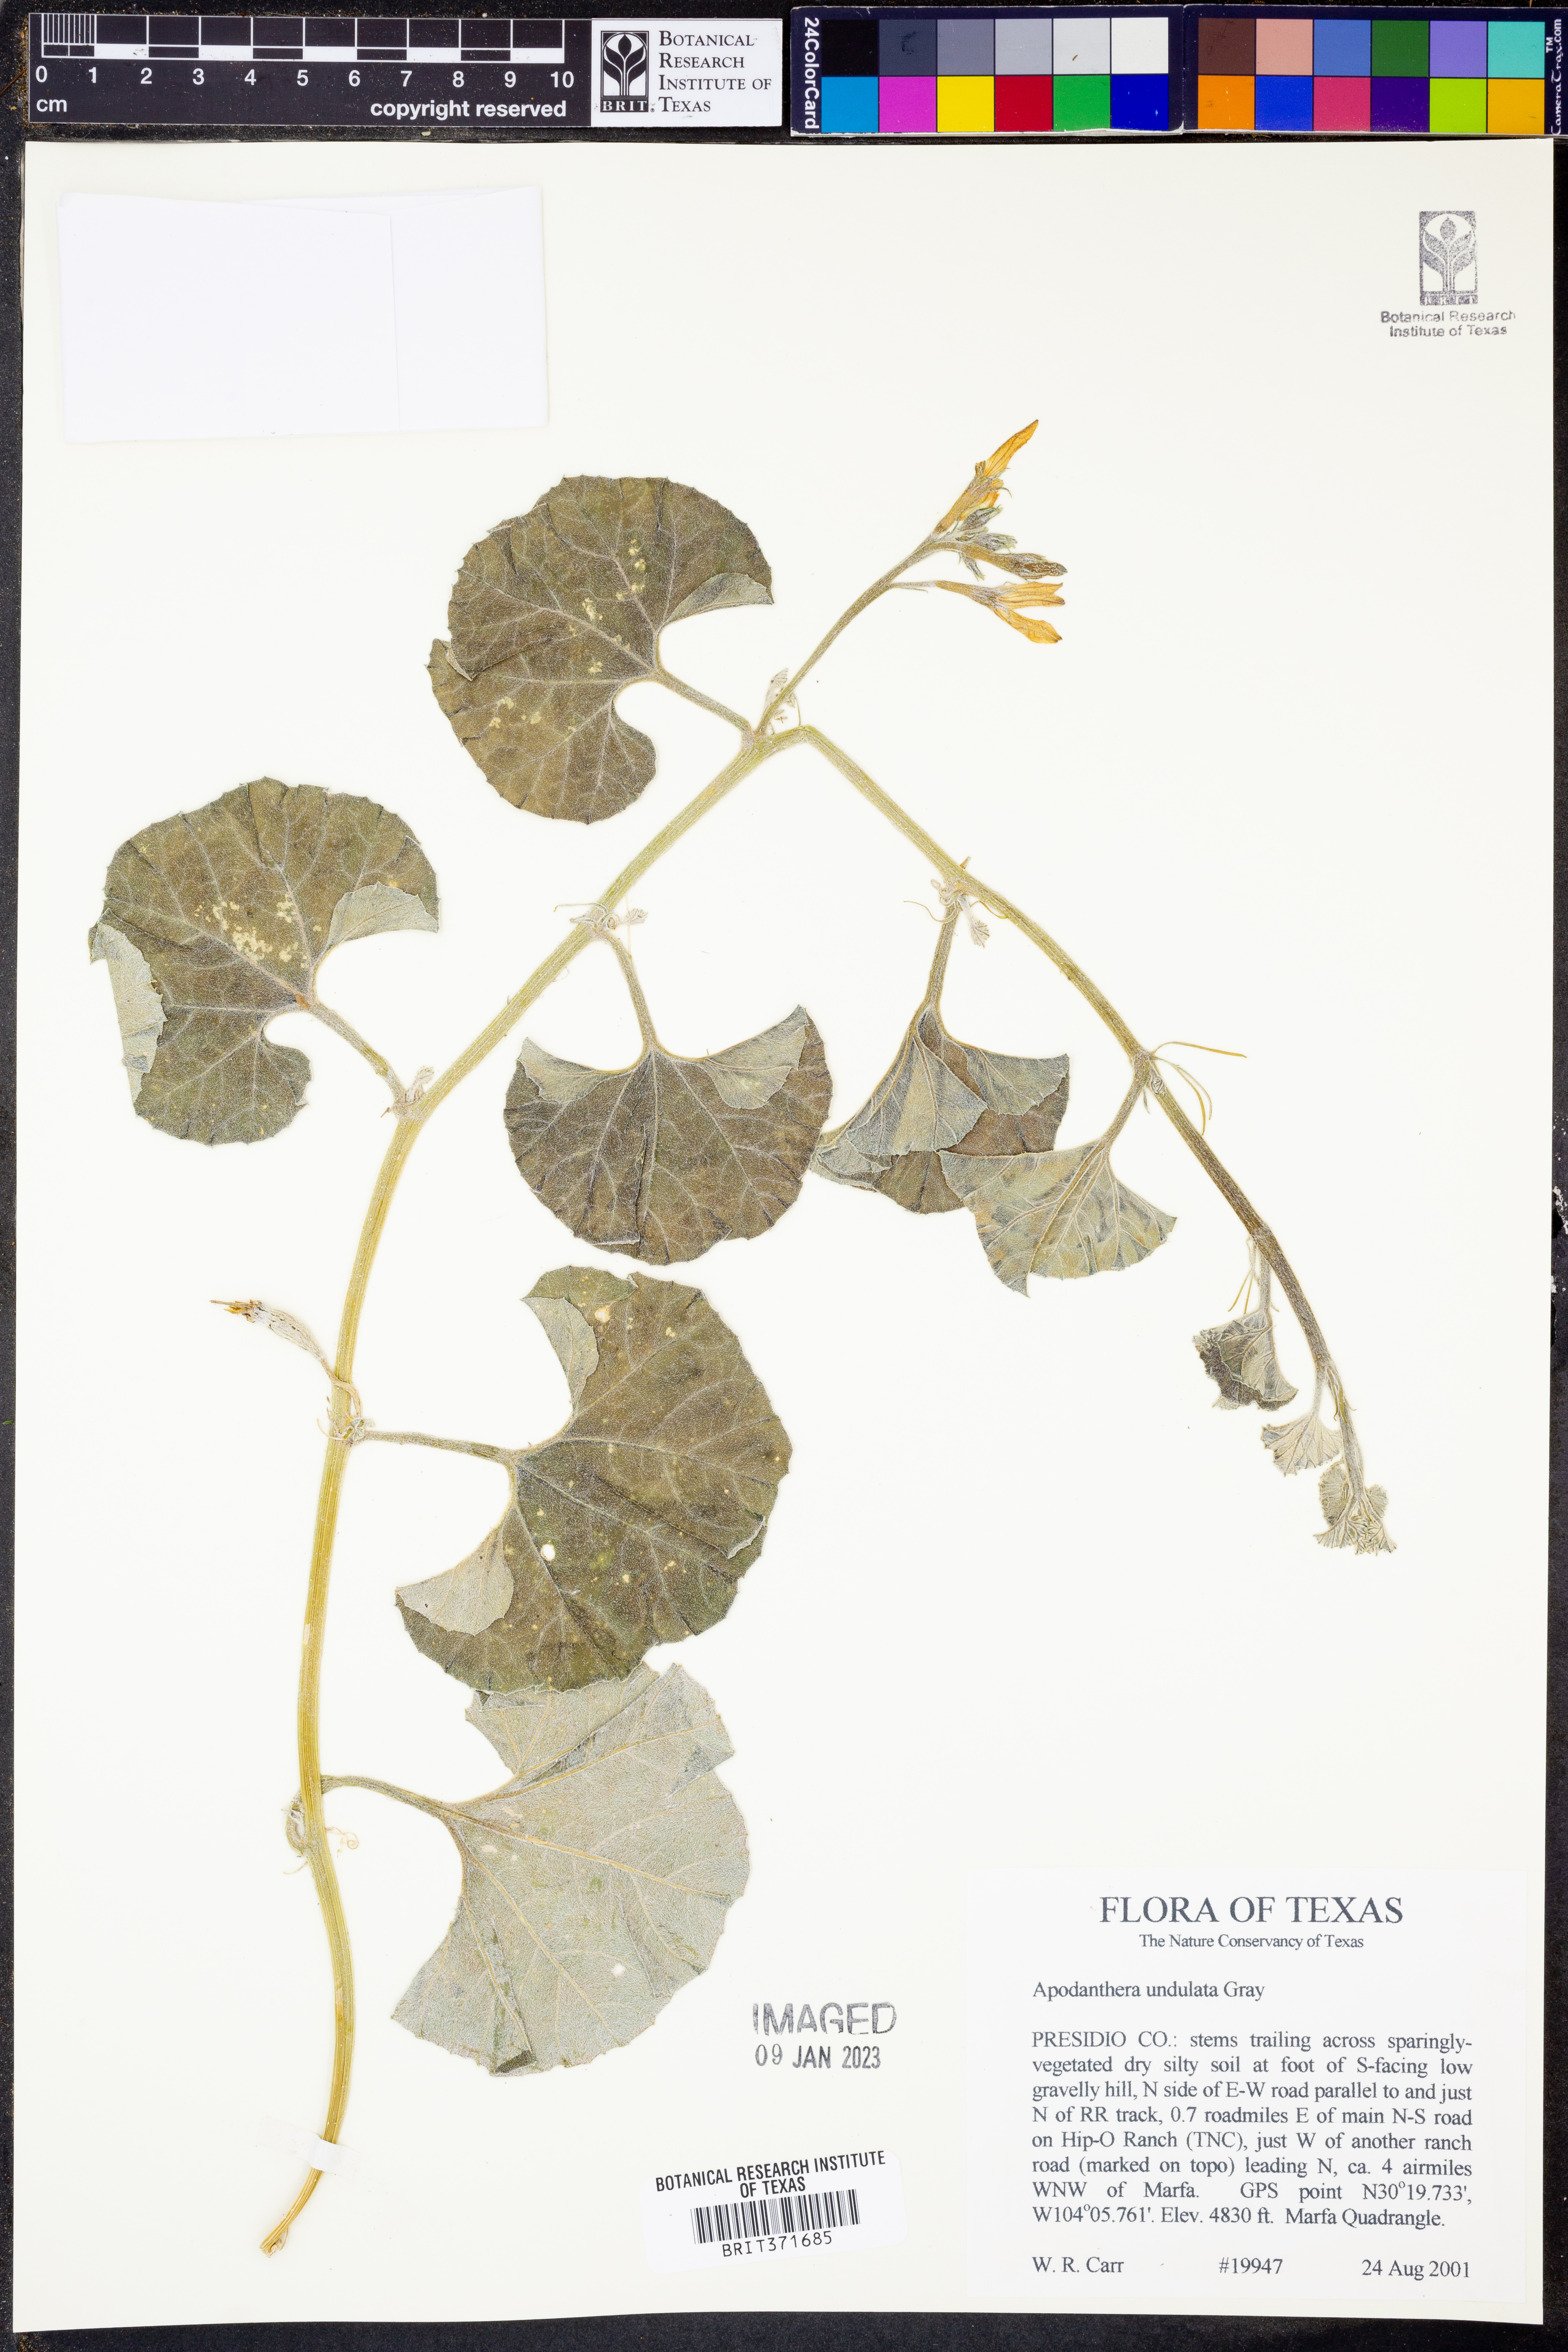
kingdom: Plantae
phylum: Tracheophyta
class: Magnoliopsida
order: Cucurbitales
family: Cucurbitaceae
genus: Apodanthera
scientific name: Apodanthera undulata
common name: Melon-loco
